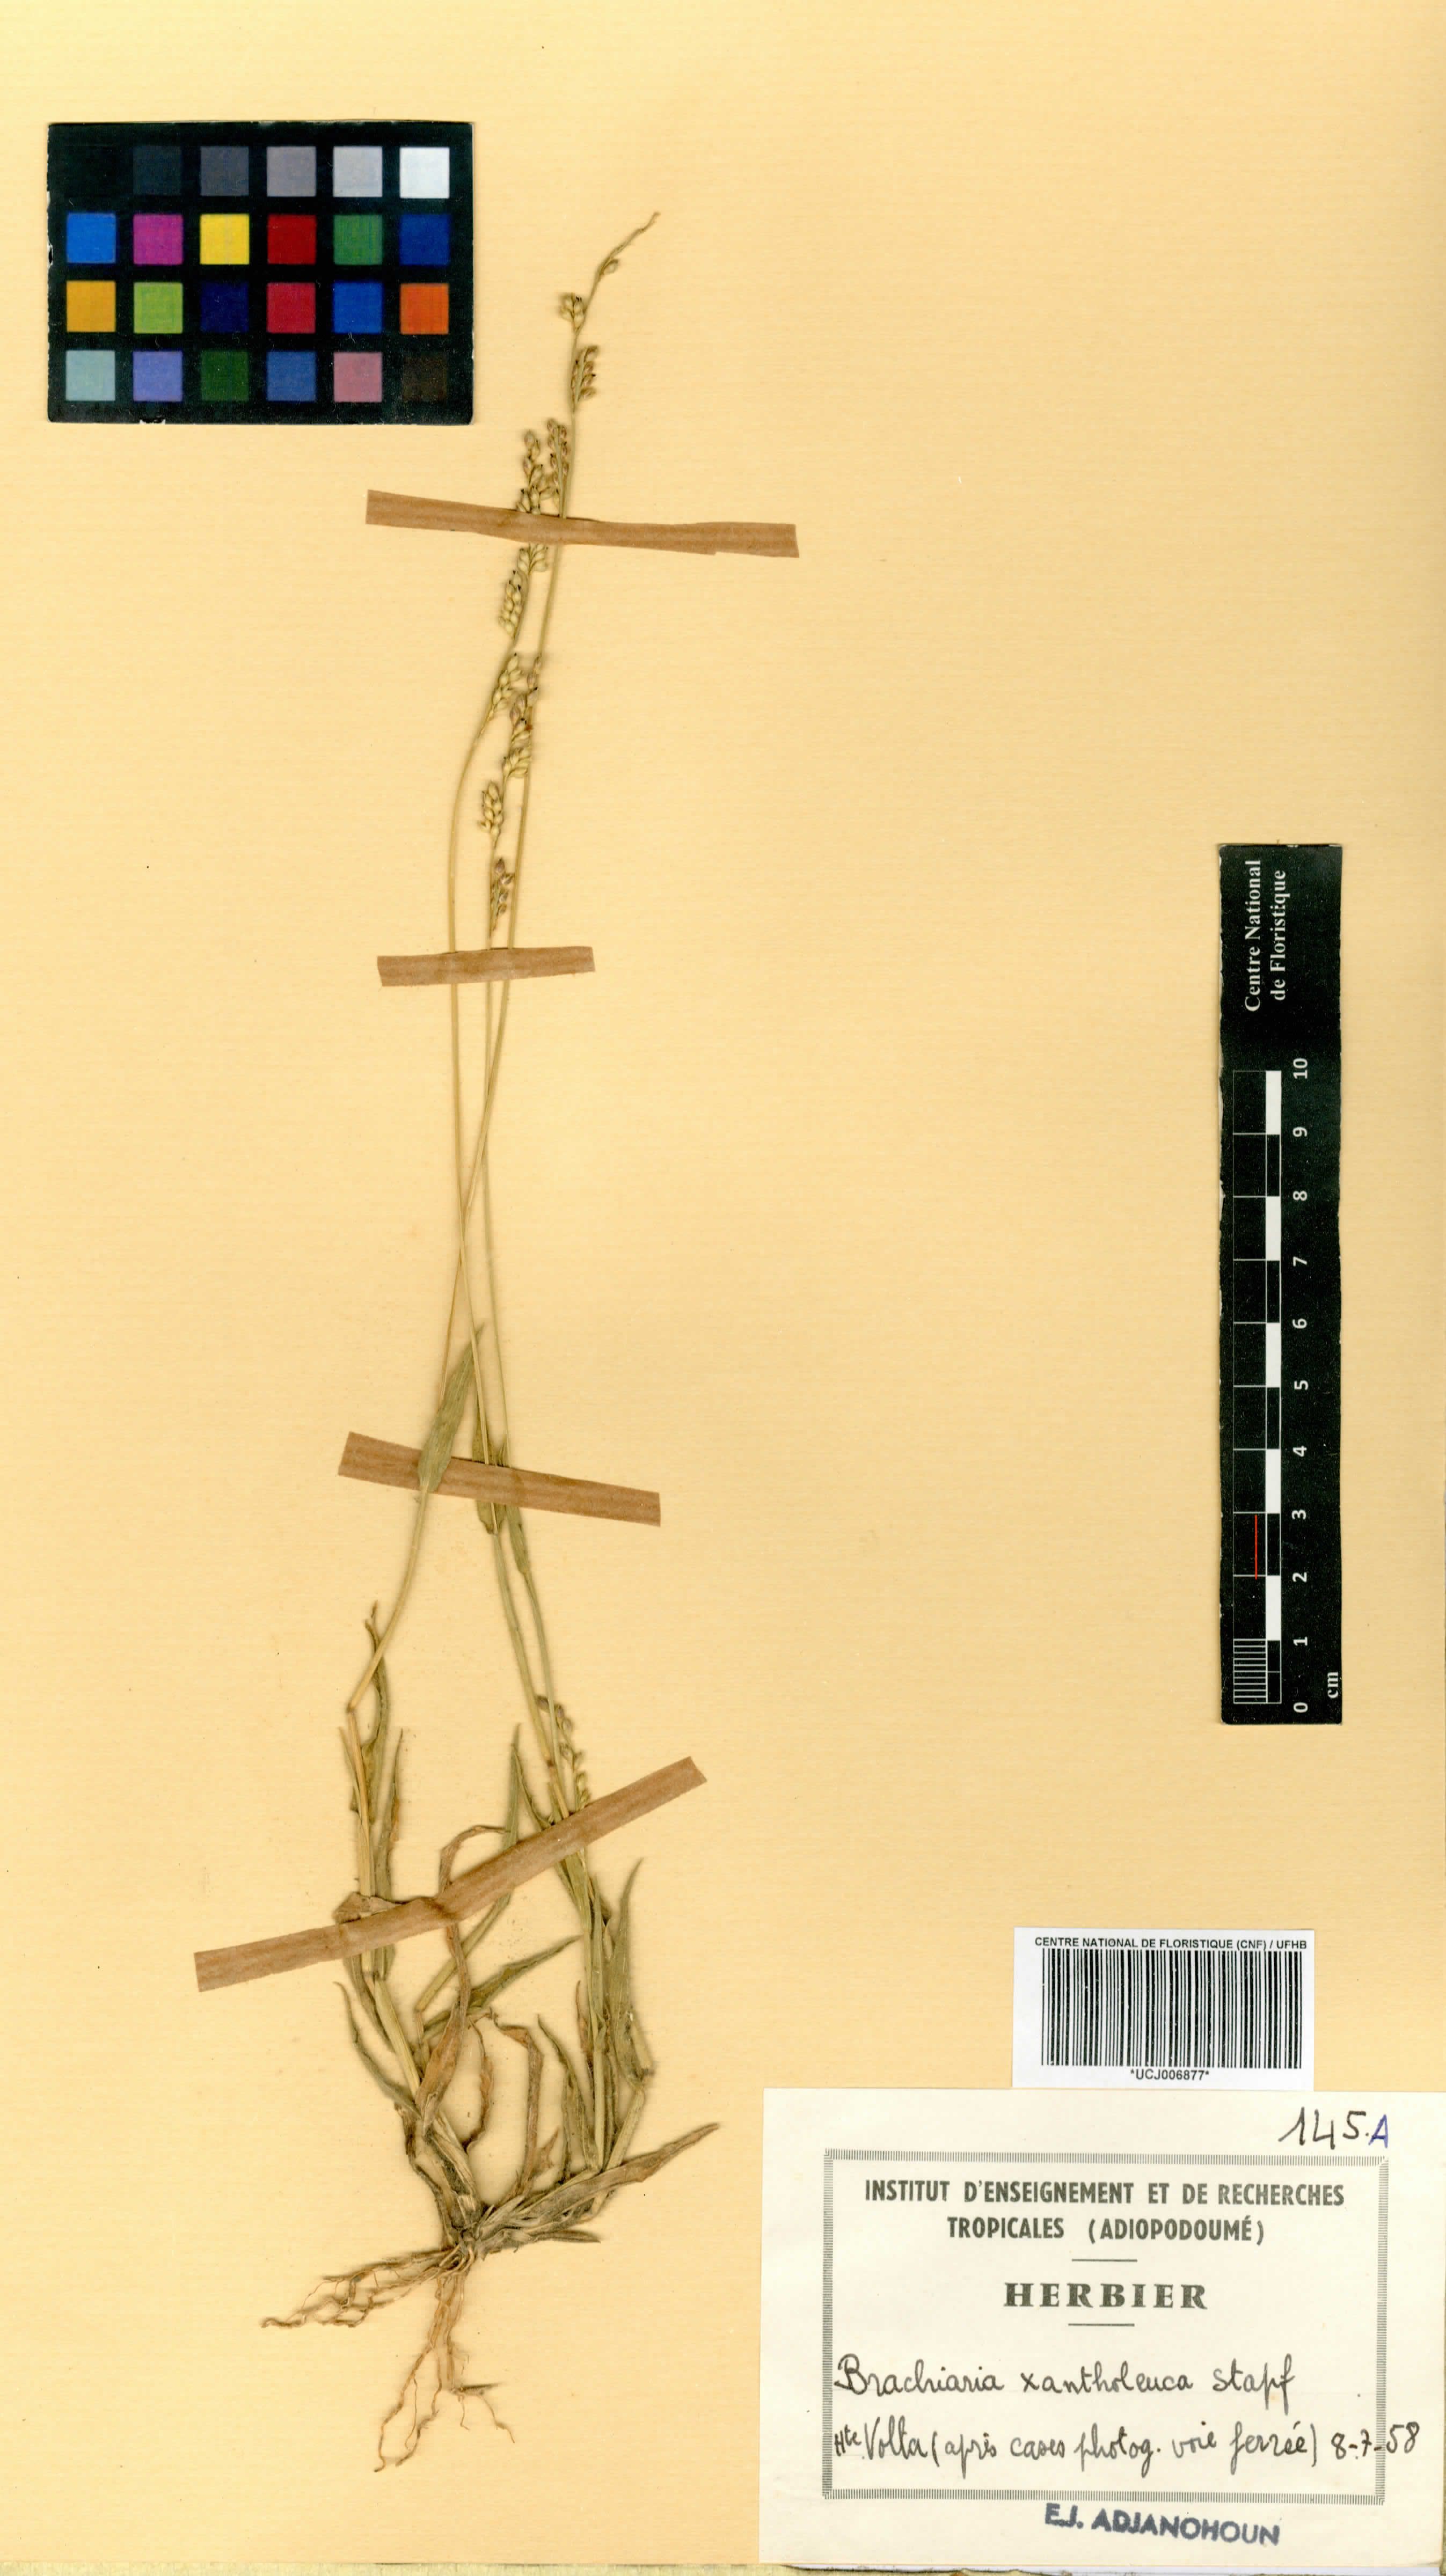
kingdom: Plantae
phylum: Tracheophyta
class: Liliopsida
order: Poales
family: Poaceae
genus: Urochloa
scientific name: Urochloa xantholeuca
